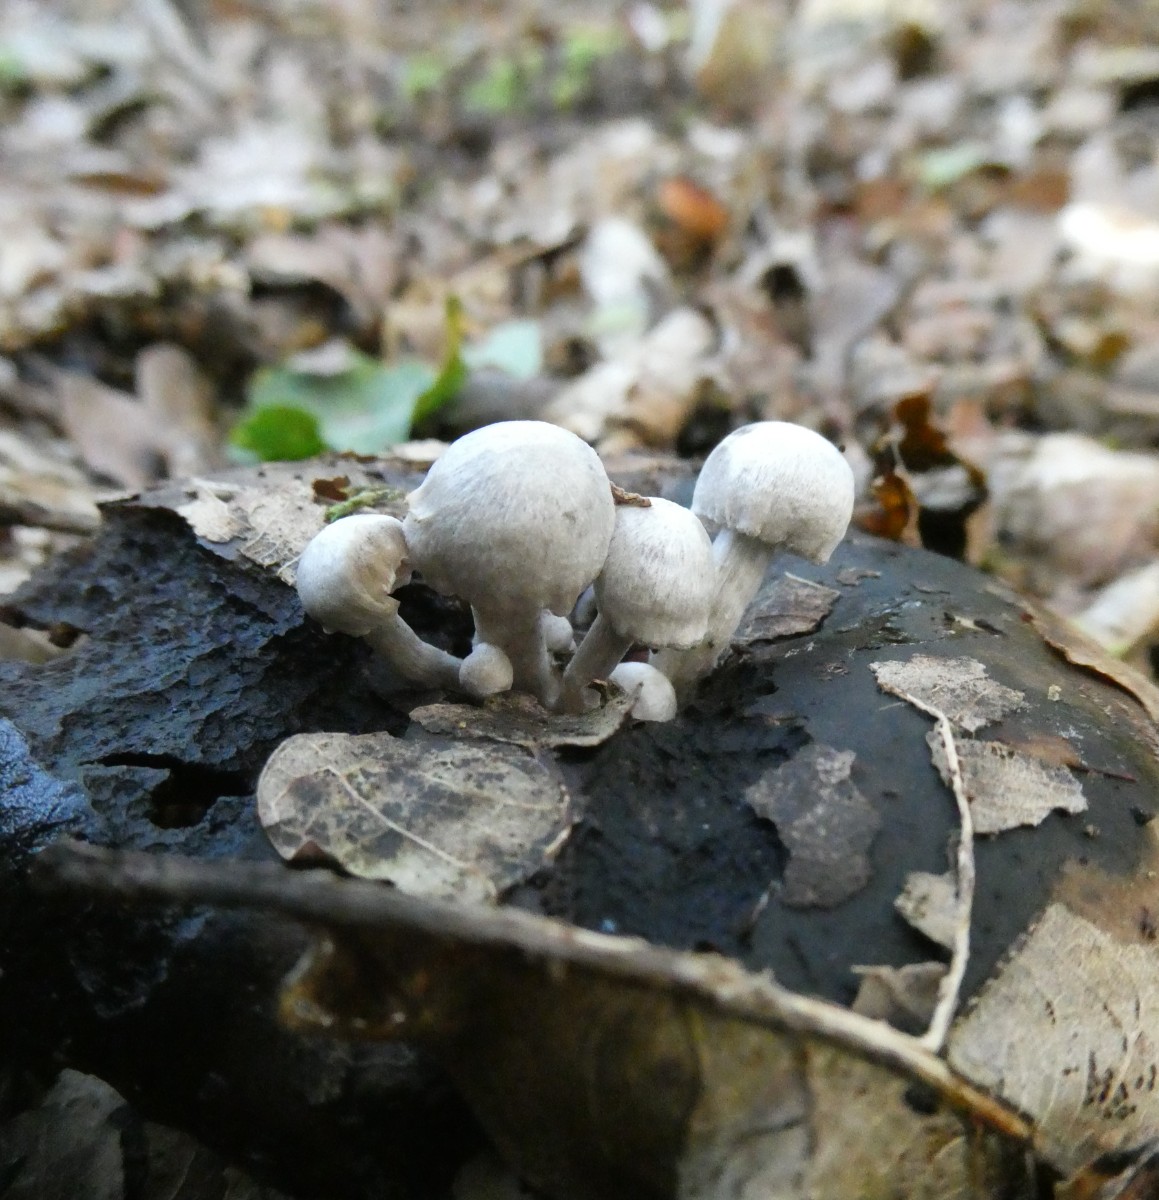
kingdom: Fungi
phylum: Basidiomycota
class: Agaricomycetes
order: Agaricales
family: Lyophyllaceae
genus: Asterophora
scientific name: Asterophora parasitica
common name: grå snyltehat
